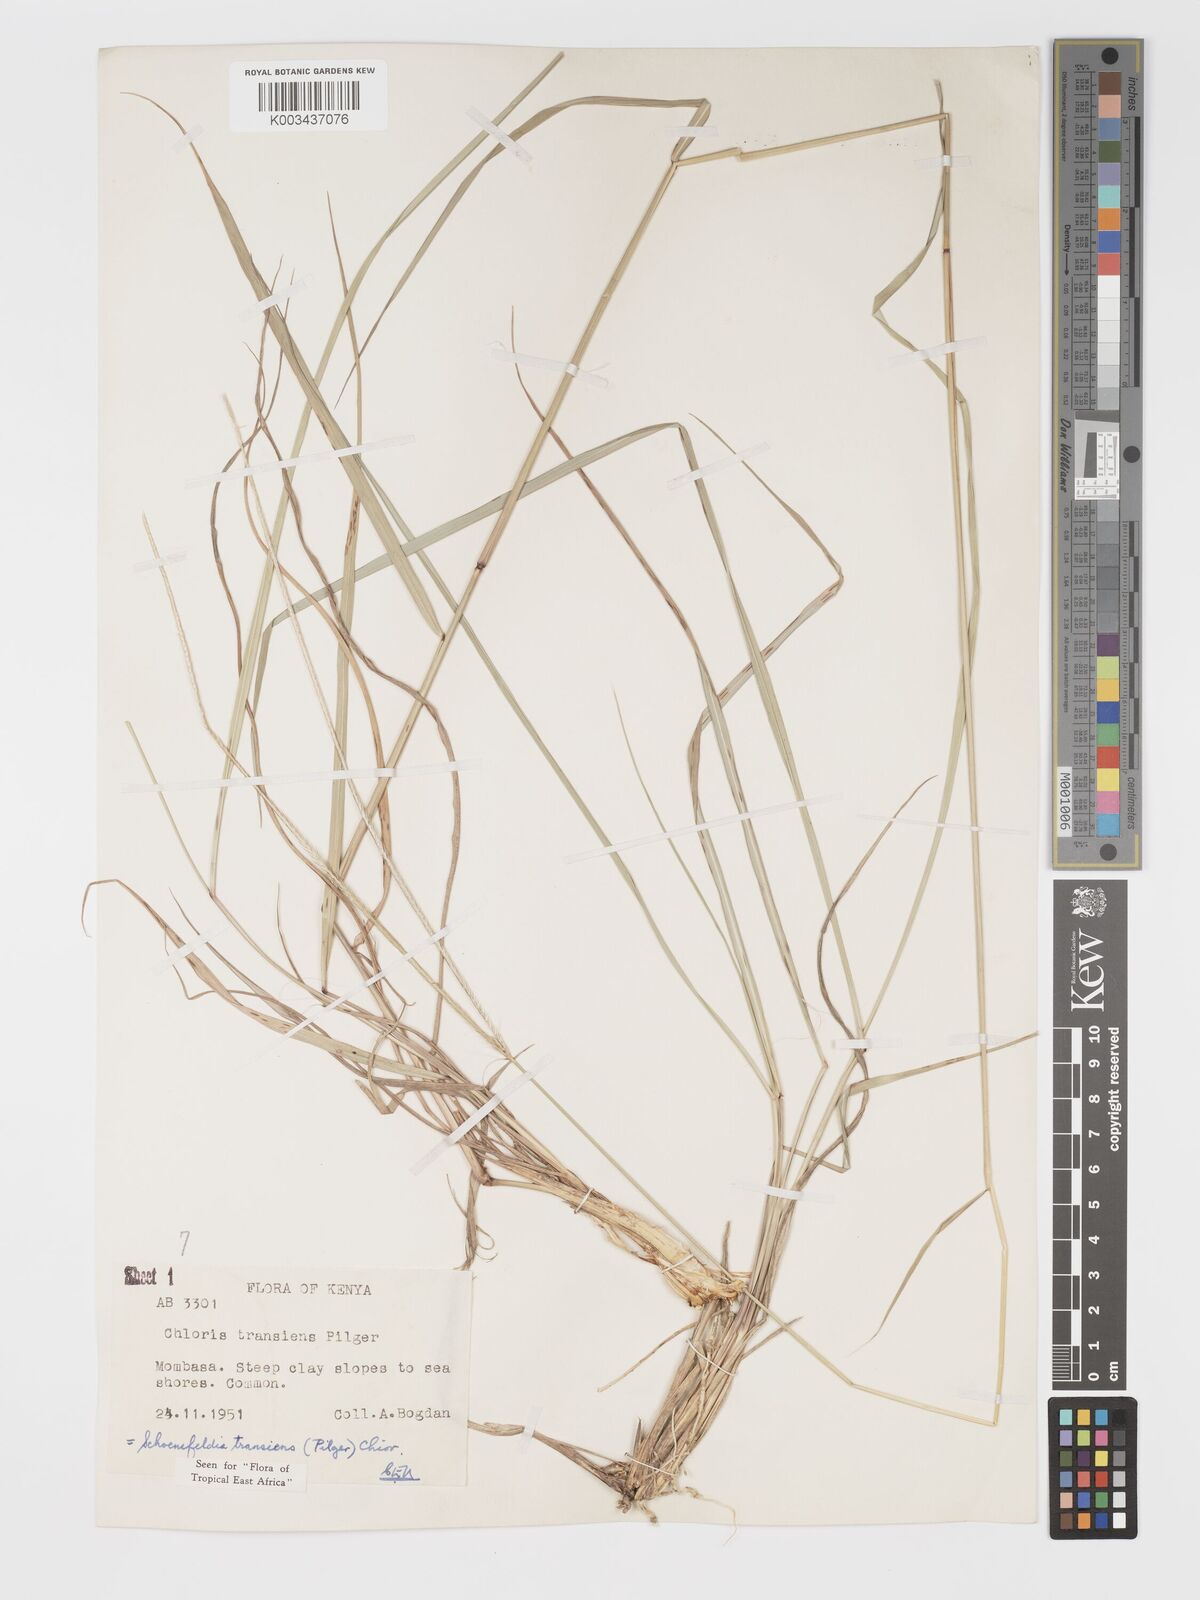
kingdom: Plantae
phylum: Tracheophyta
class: Liliopsida
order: Poales
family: Poaceae
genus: Schoenefeldia
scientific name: Schoenefeldia transiens
